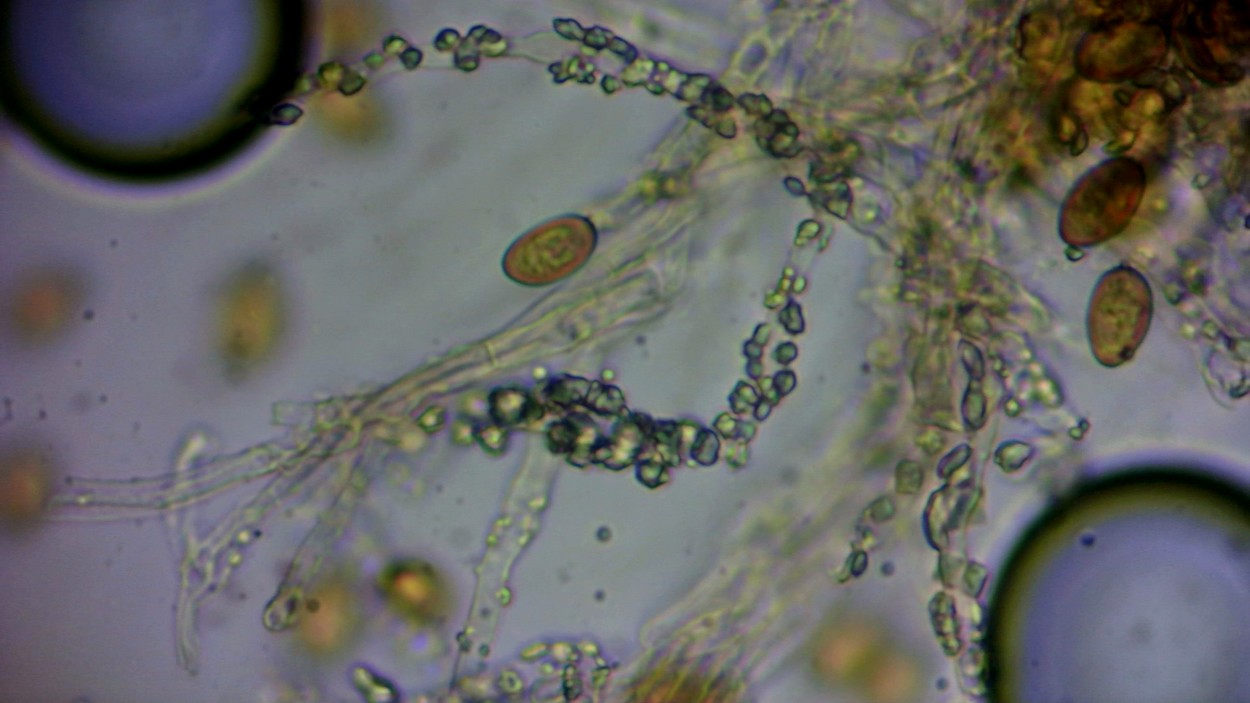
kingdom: Fungi
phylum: Basidiomycota
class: Agaricomycetes
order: Boletales
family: Coniophoraceae
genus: Coniophora
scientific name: Coniophora arida
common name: tynd tømmersvamp
